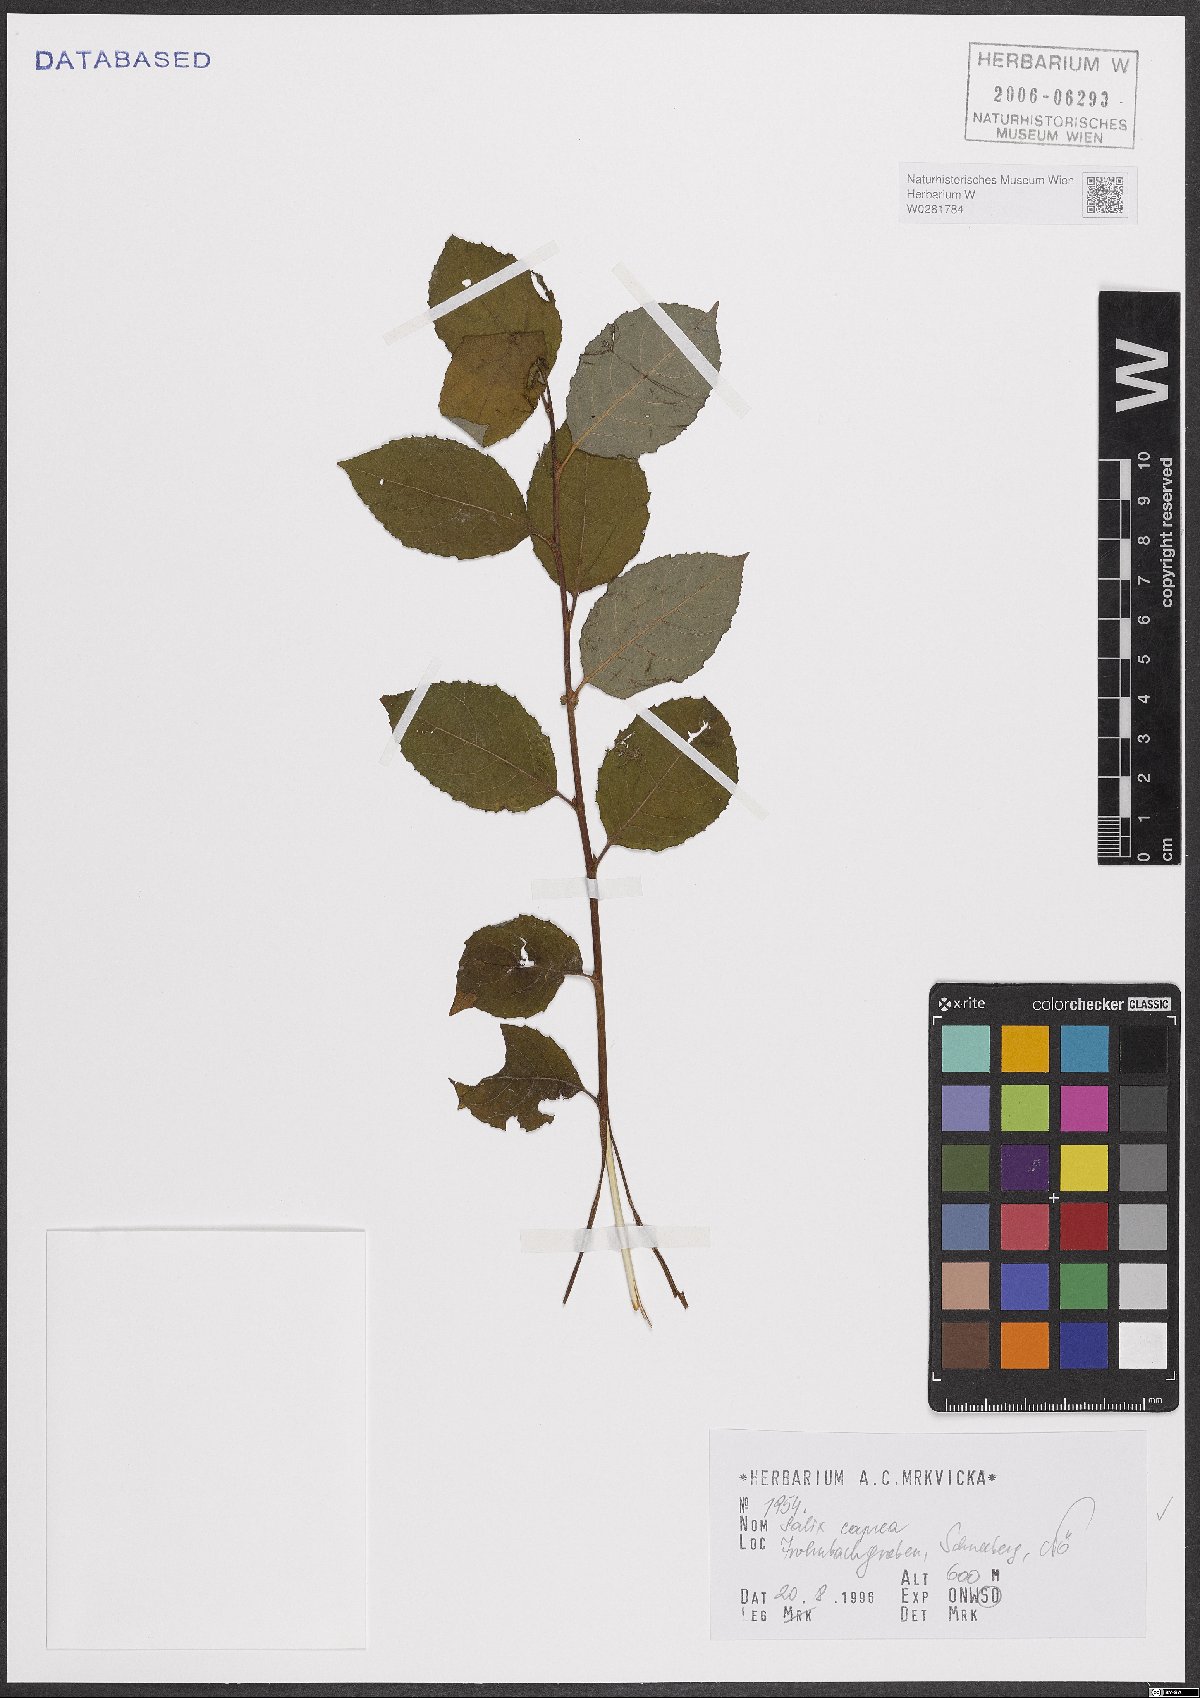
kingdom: Plantae
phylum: Tracheophyta
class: Magnoliopsida
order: Malpighiales
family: Salicaceae
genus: Salix
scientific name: Salix caprea
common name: Goat willow
